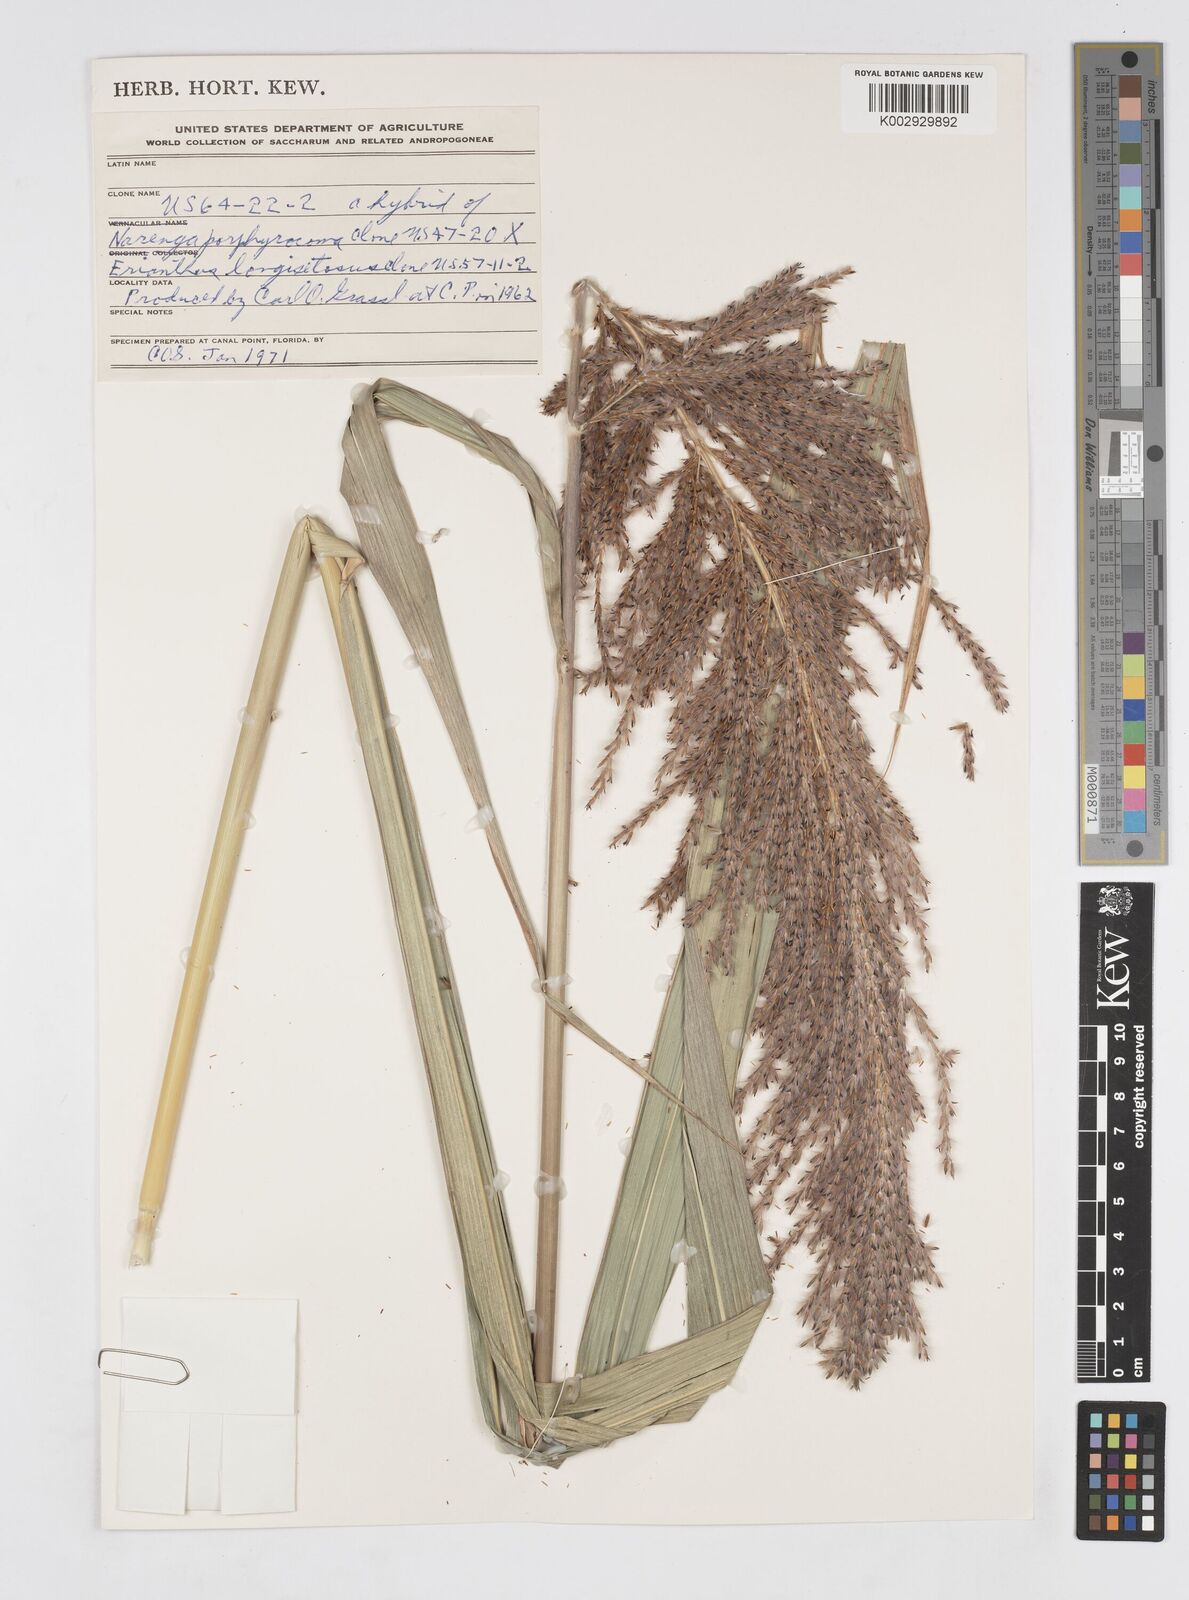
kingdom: Plantae
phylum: Tracheophyta
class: Liliopsida
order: Poales
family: Poaceae
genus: Saccharum
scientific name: Saccharum
